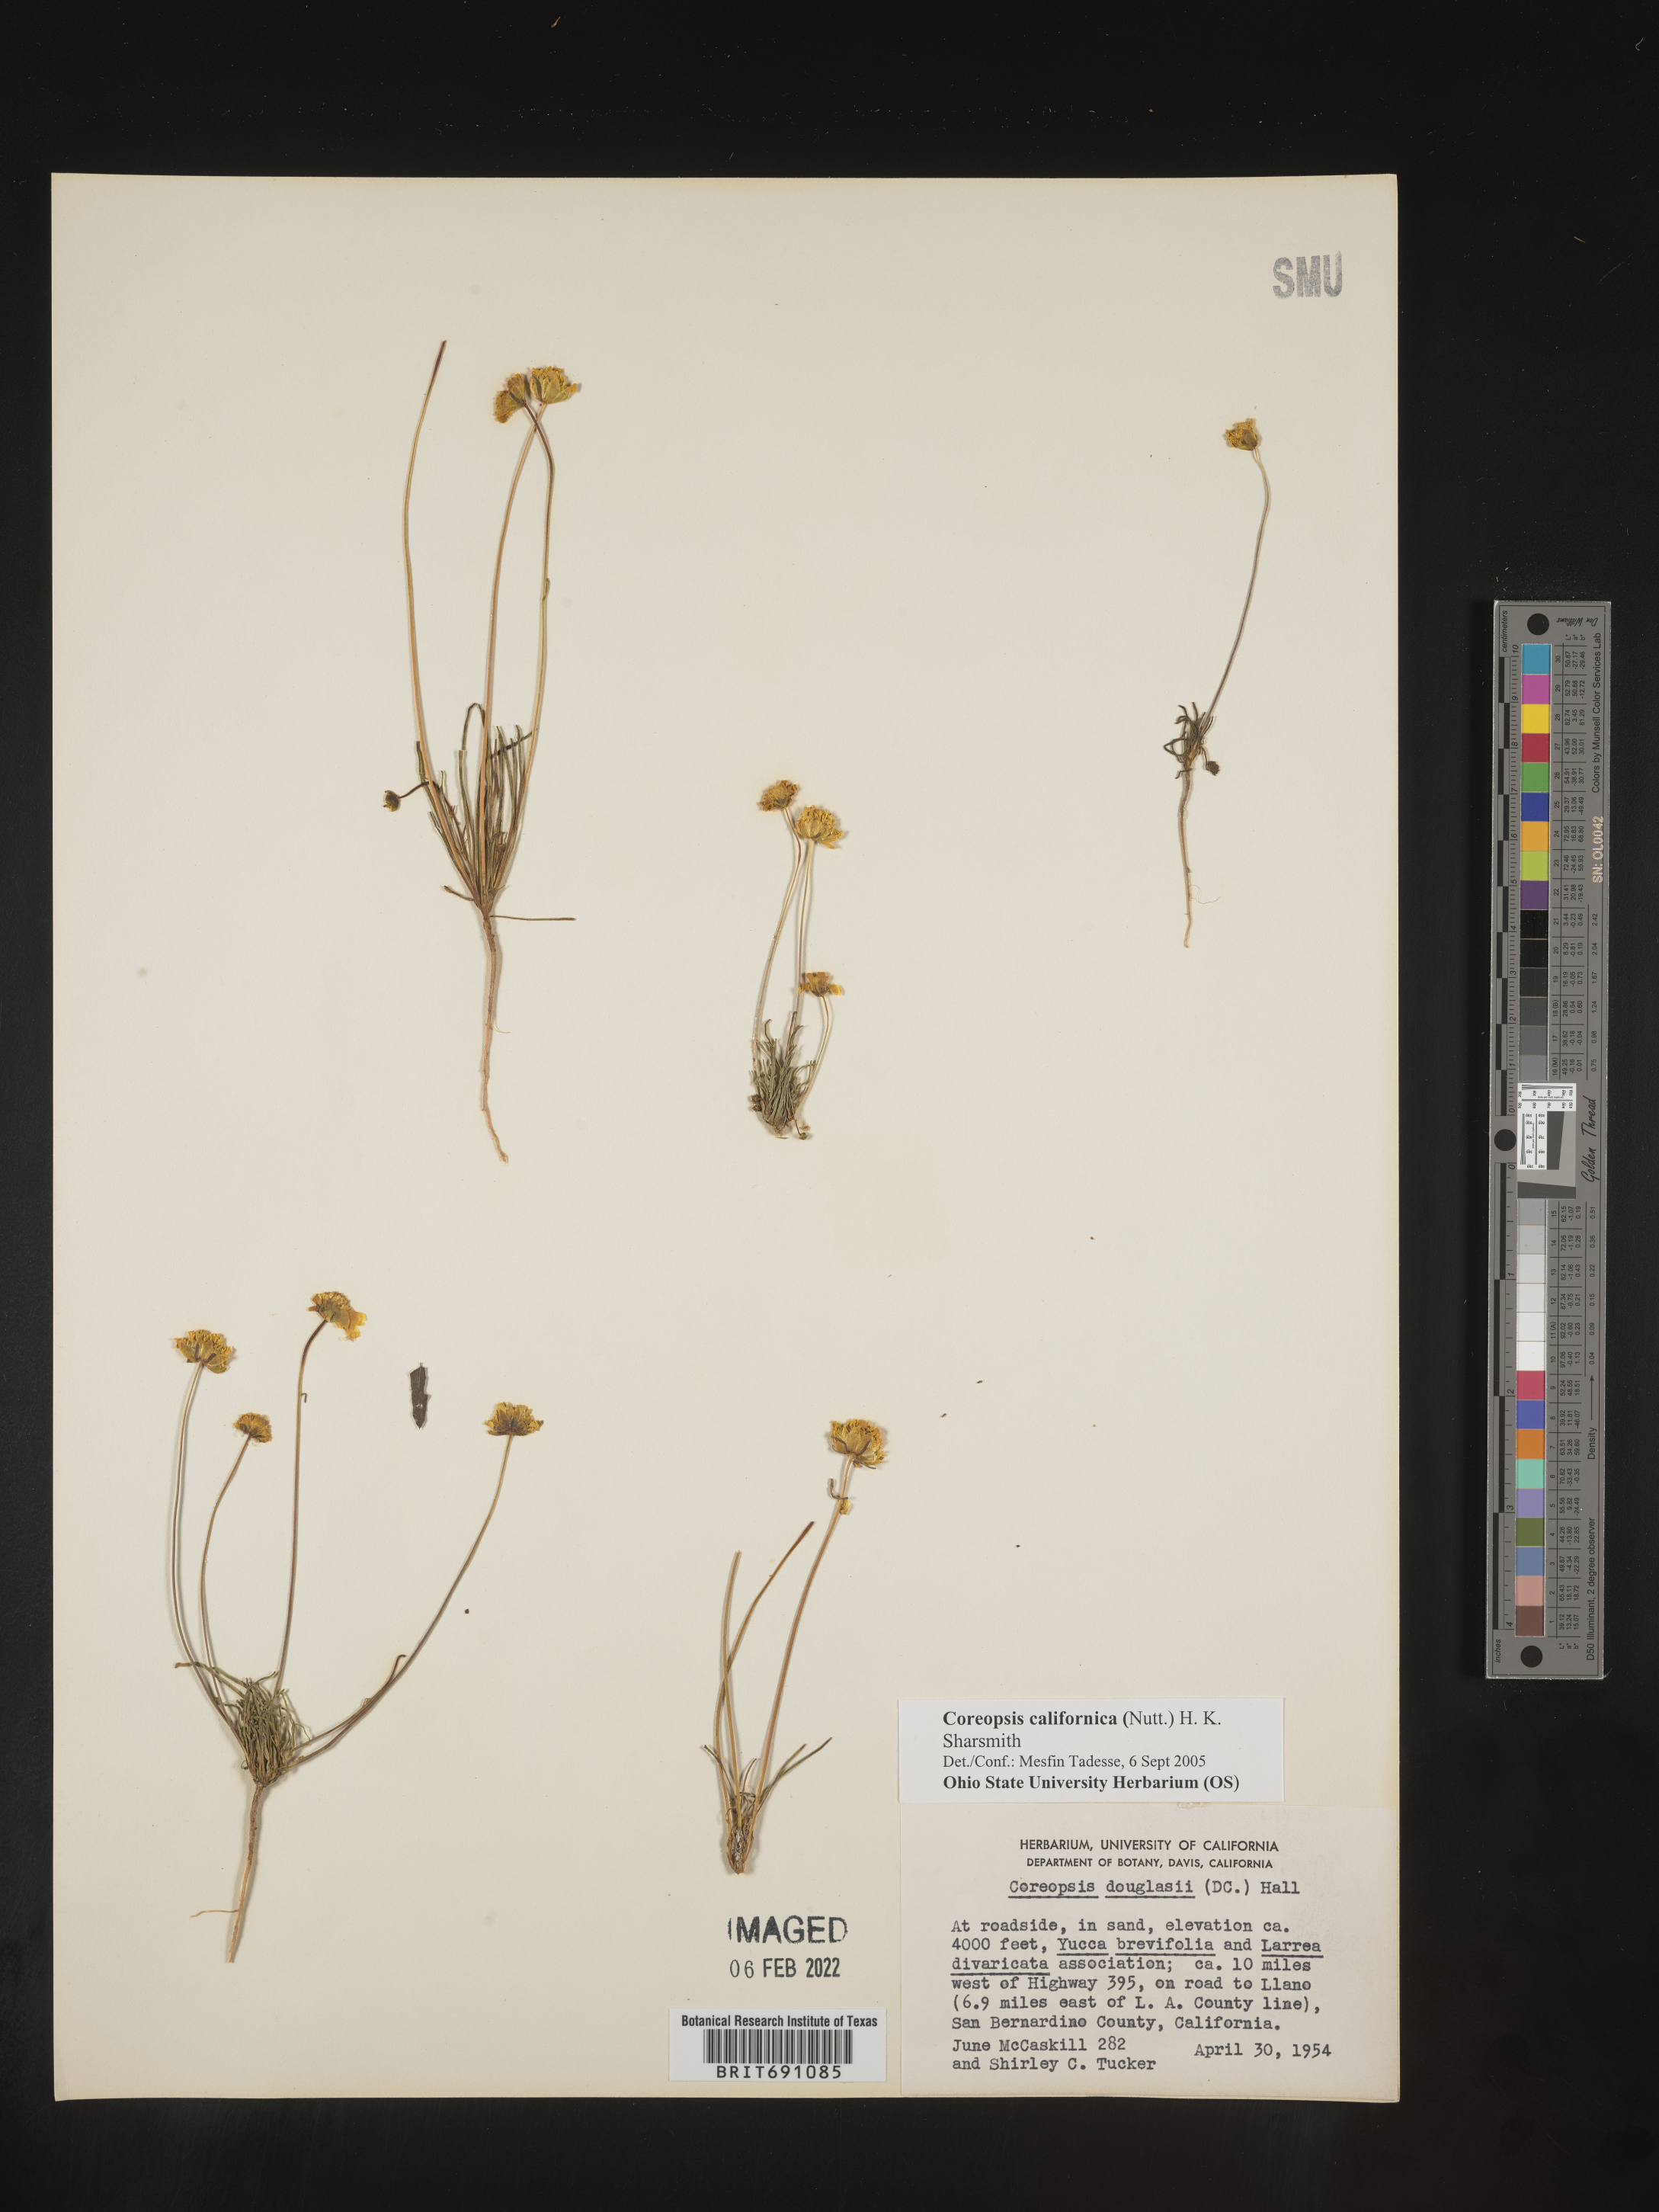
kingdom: Plantae
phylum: Tracheophyta
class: Magnoliopsida
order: Asterales
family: Asteraceae
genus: Coreopsis
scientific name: Coreopsis californica
